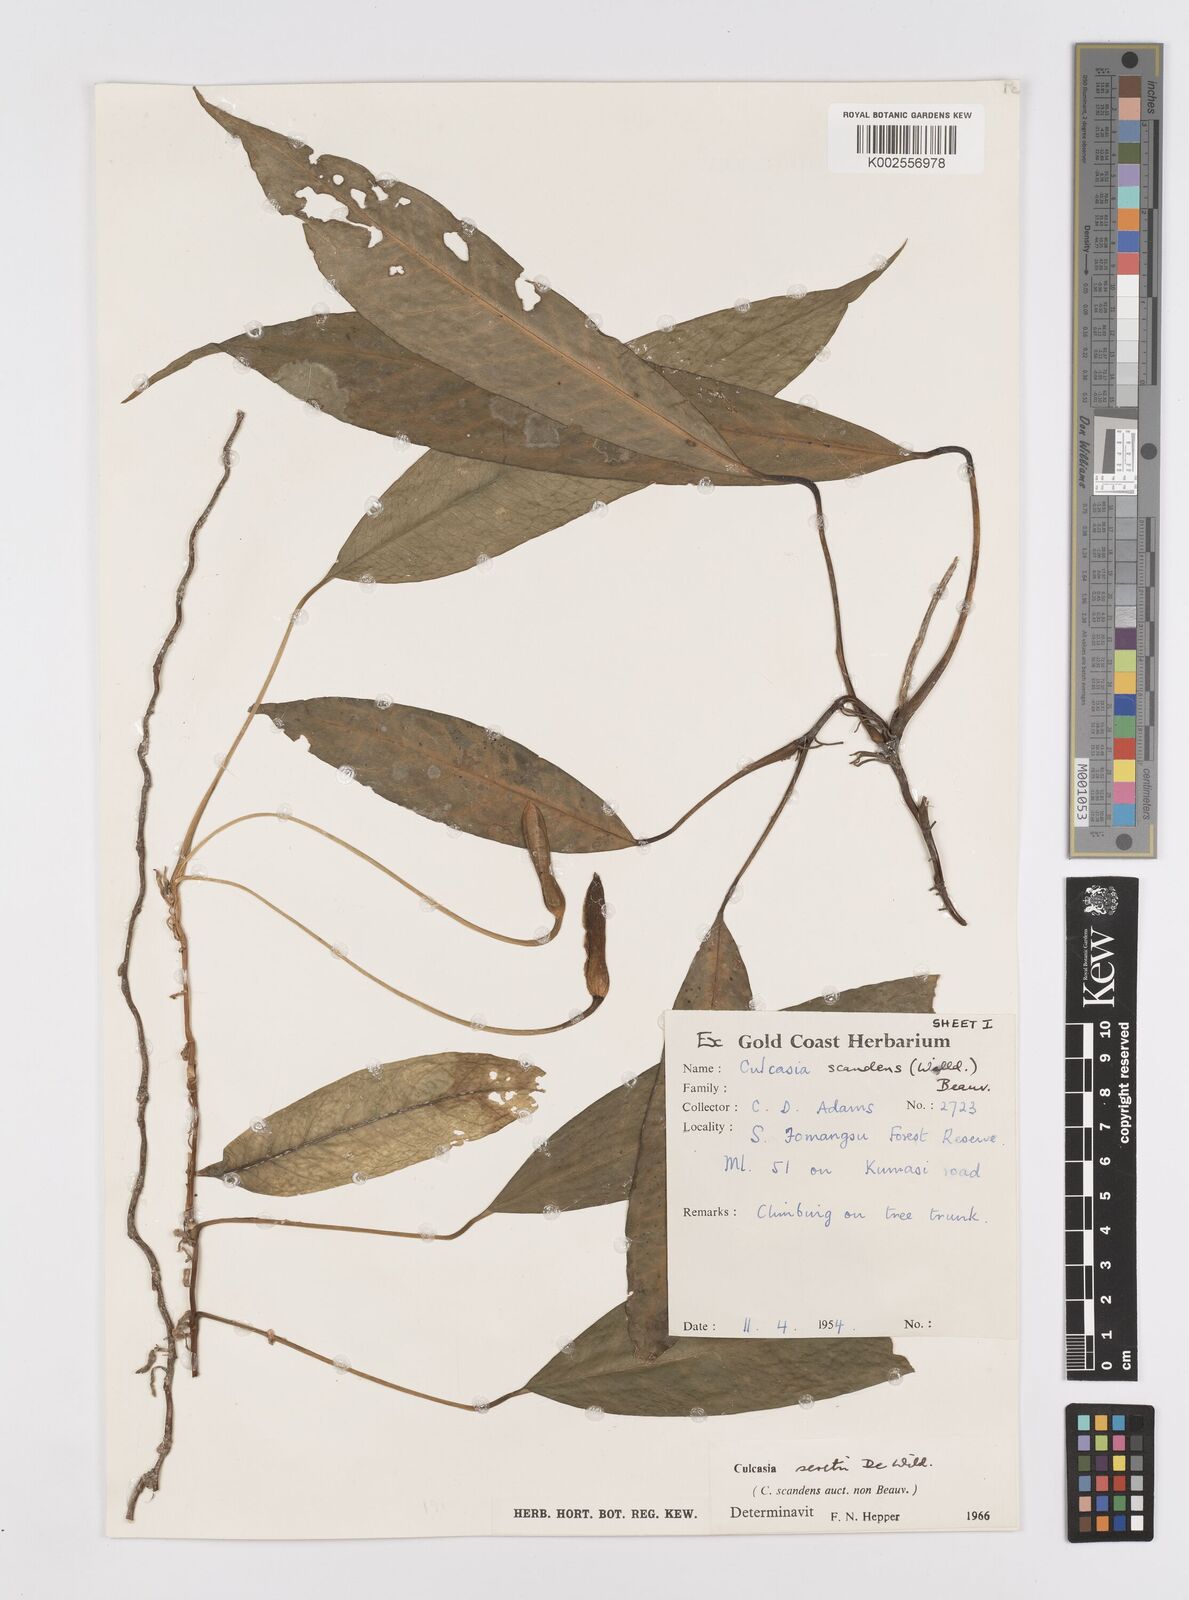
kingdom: Plantae
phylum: Tracheophyta
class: Liliopsida
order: Alismatales
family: Araceae
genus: Culcasia
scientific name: Culcasia seretii
